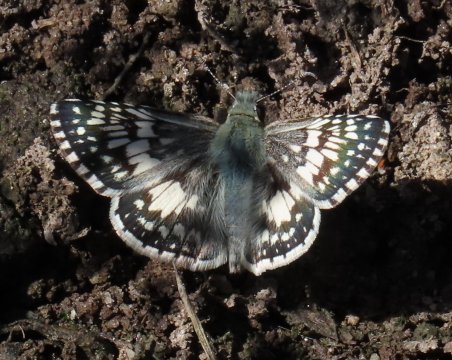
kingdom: Animalia
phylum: Arthropoda
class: Insecta
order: Lepidoptera
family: Hesperiidae
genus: Pyrgus
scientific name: Pyrgus communis
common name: White Checkered-Skipper
